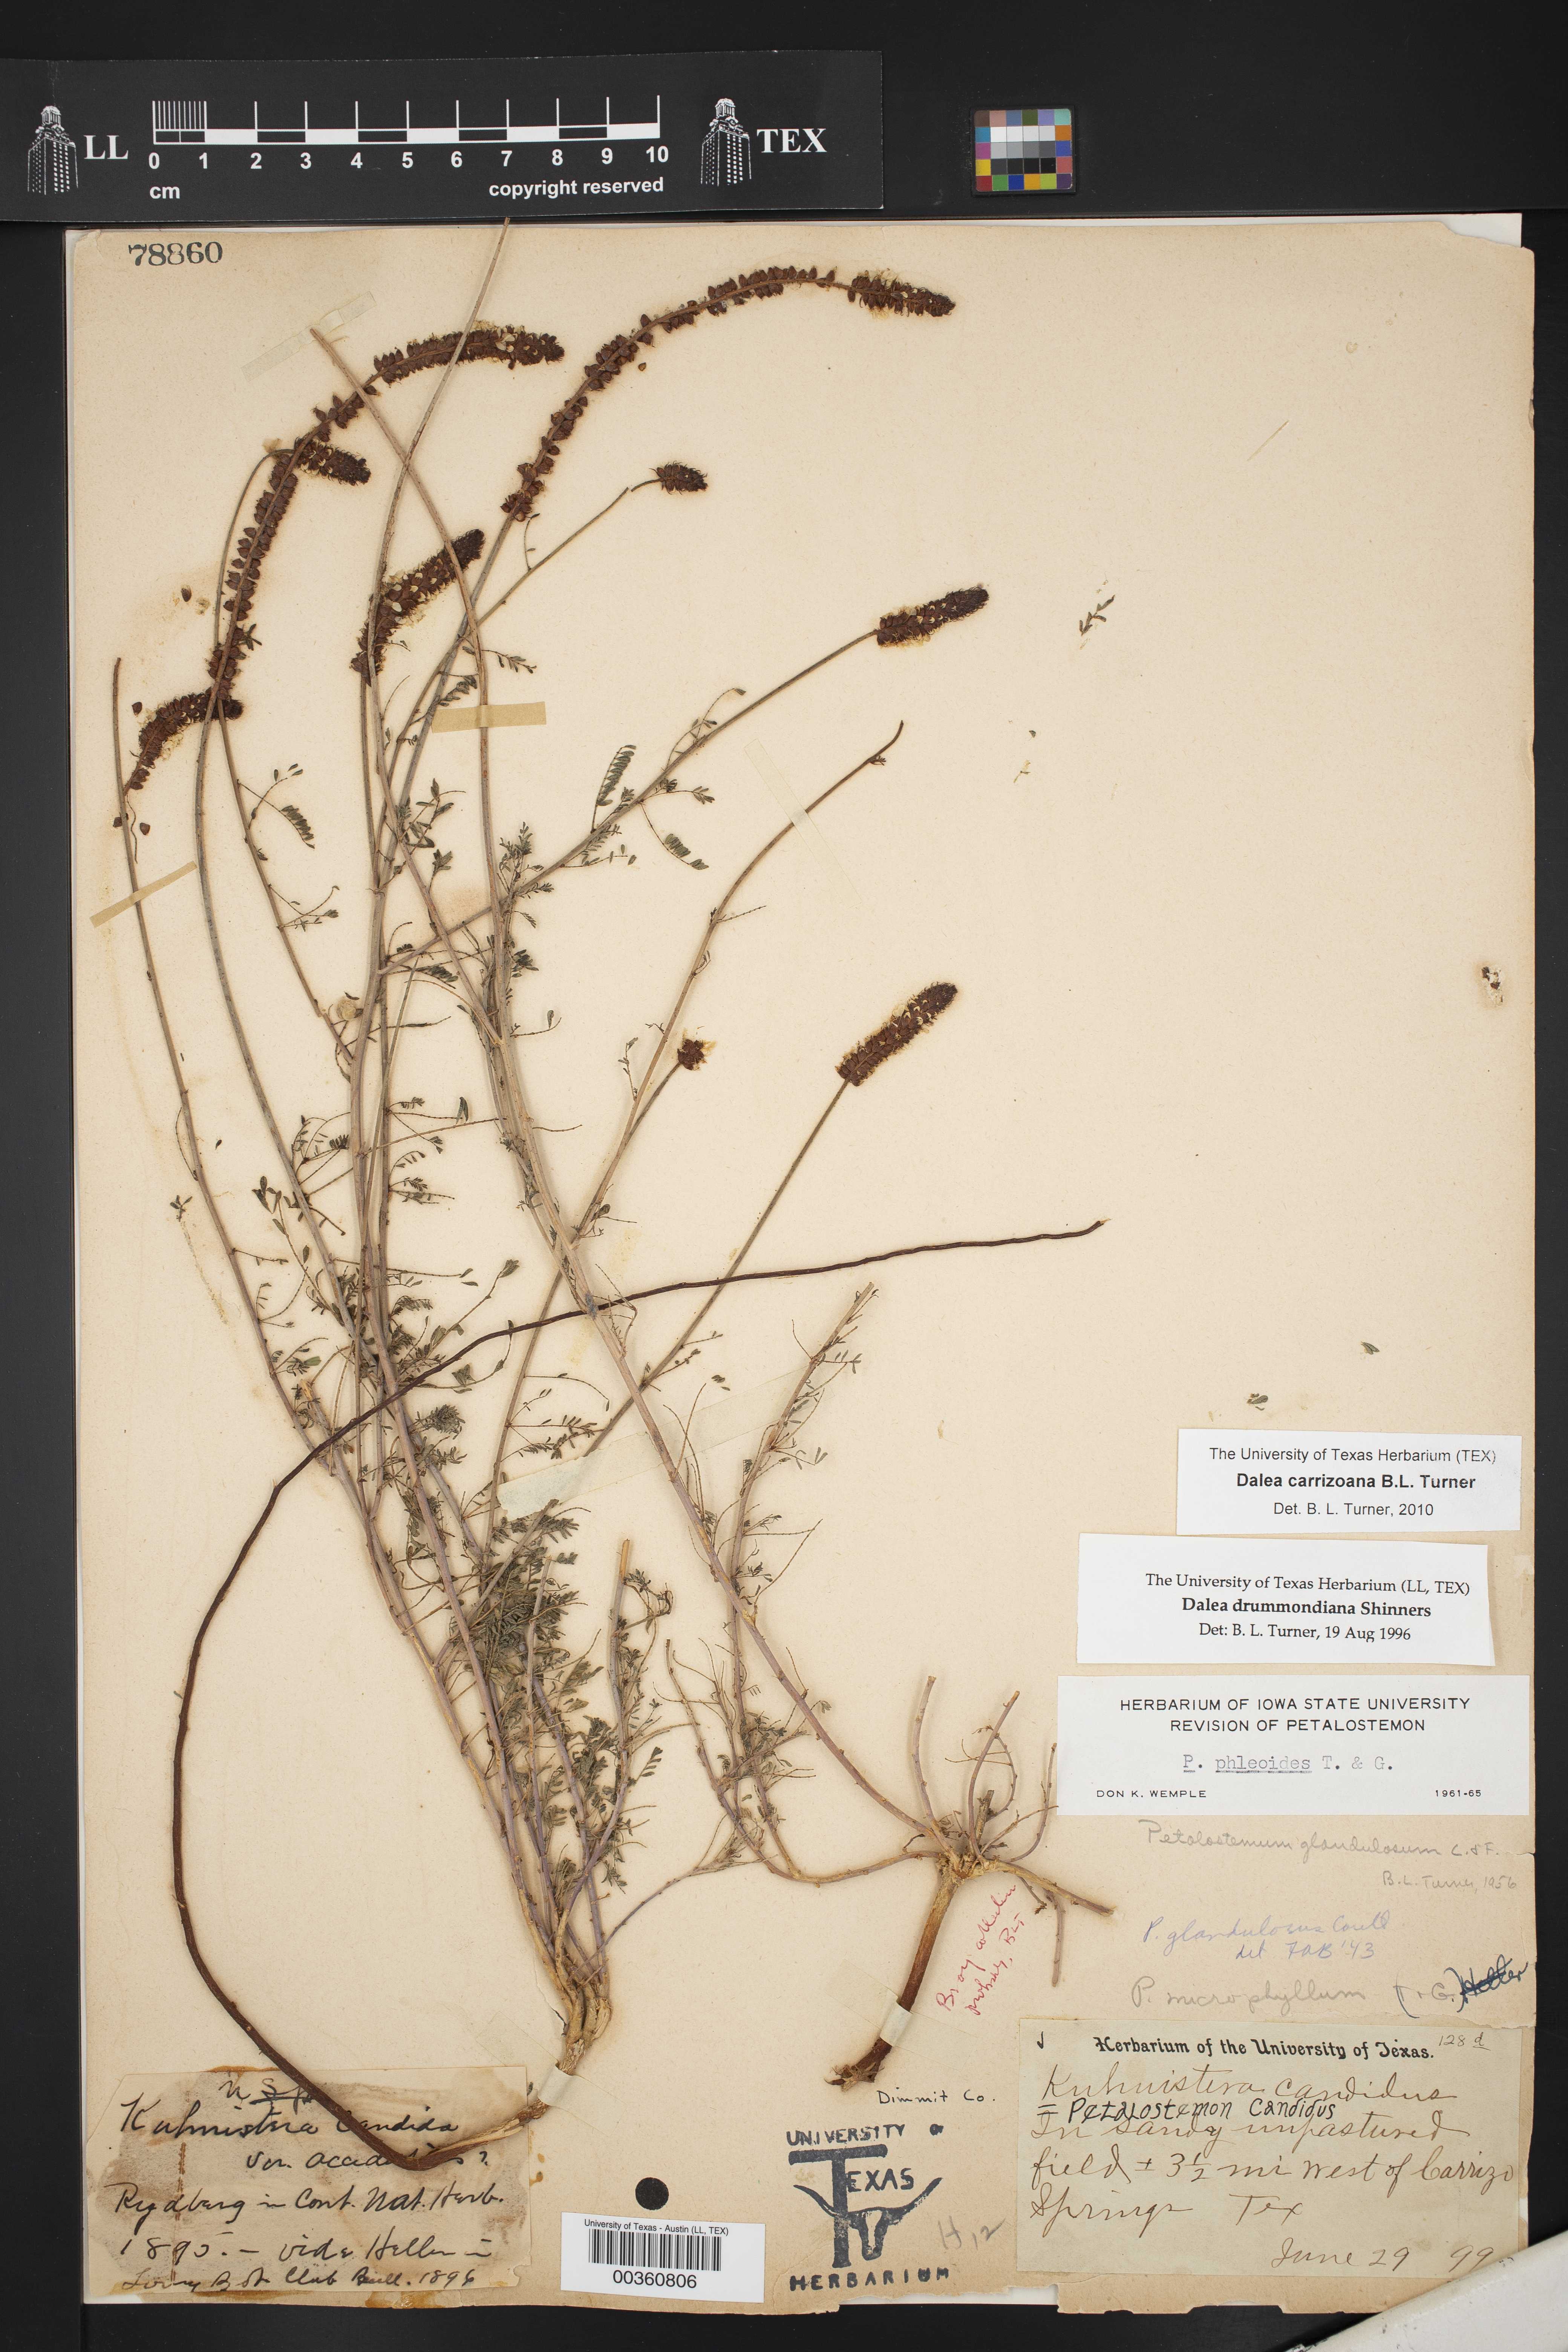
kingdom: Plantae
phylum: Tracheophyta
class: Magnoliopsida
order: Fabales
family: Fabaceae
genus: Dalea
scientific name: Dalea
